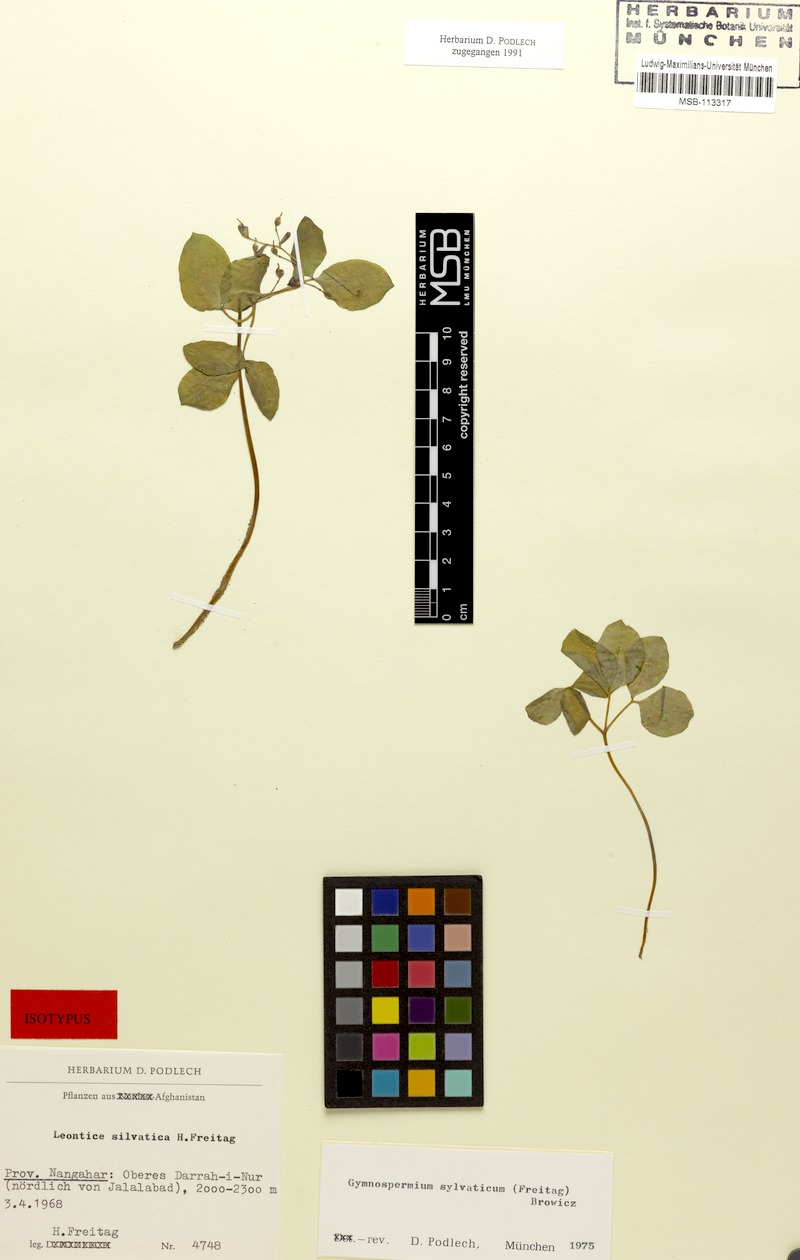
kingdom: Plantae
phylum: Tracheophyta
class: Magnoliopsida
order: Ranunculales
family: Berberidaceae
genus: Gymnospermium
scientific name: Gymnospermium silvaticum
